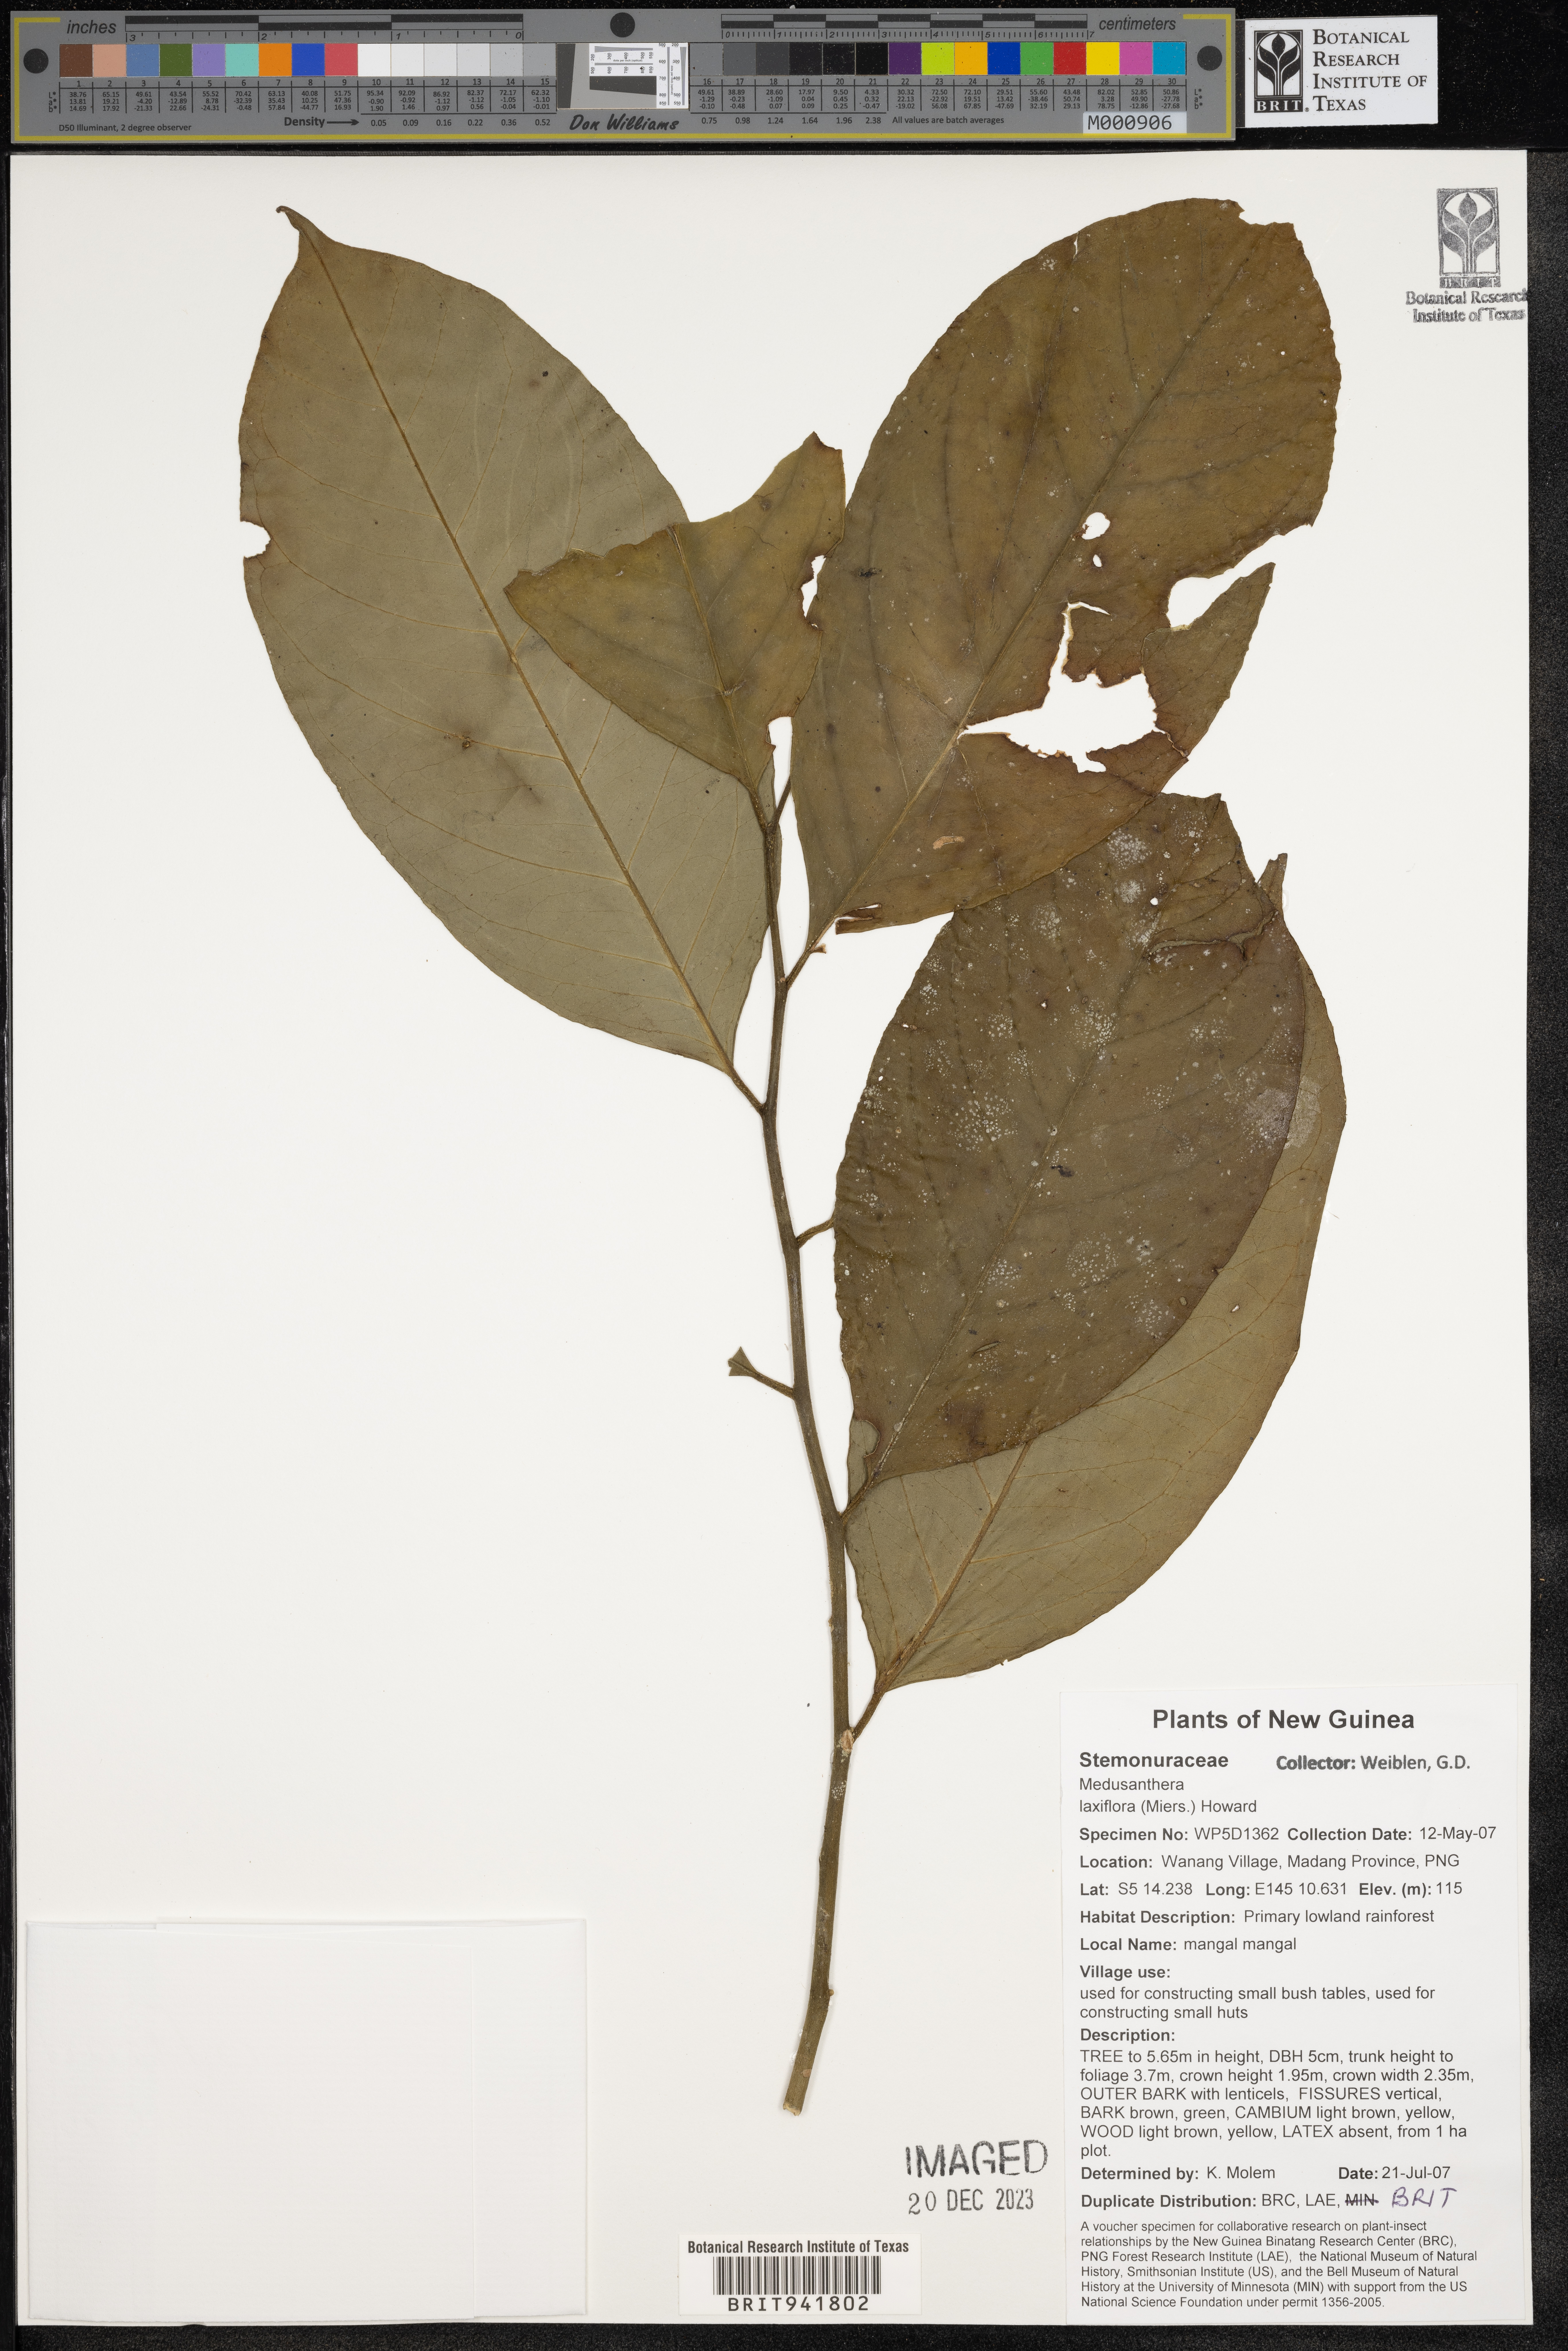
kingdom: Plantae
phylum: Tracheophyta
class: Magnoliopsida
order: Cardiopteridales
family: Stemonuraceae
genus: Medusanthera
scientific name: Medusanthera
